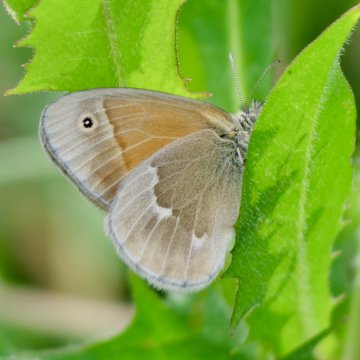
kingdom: Animalia
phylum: Arthropoda
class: Insecta
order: Lepidoptera
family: Nymphalidae
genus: Coenonympha
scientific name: Coenonympha tullia
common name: Large Heath
